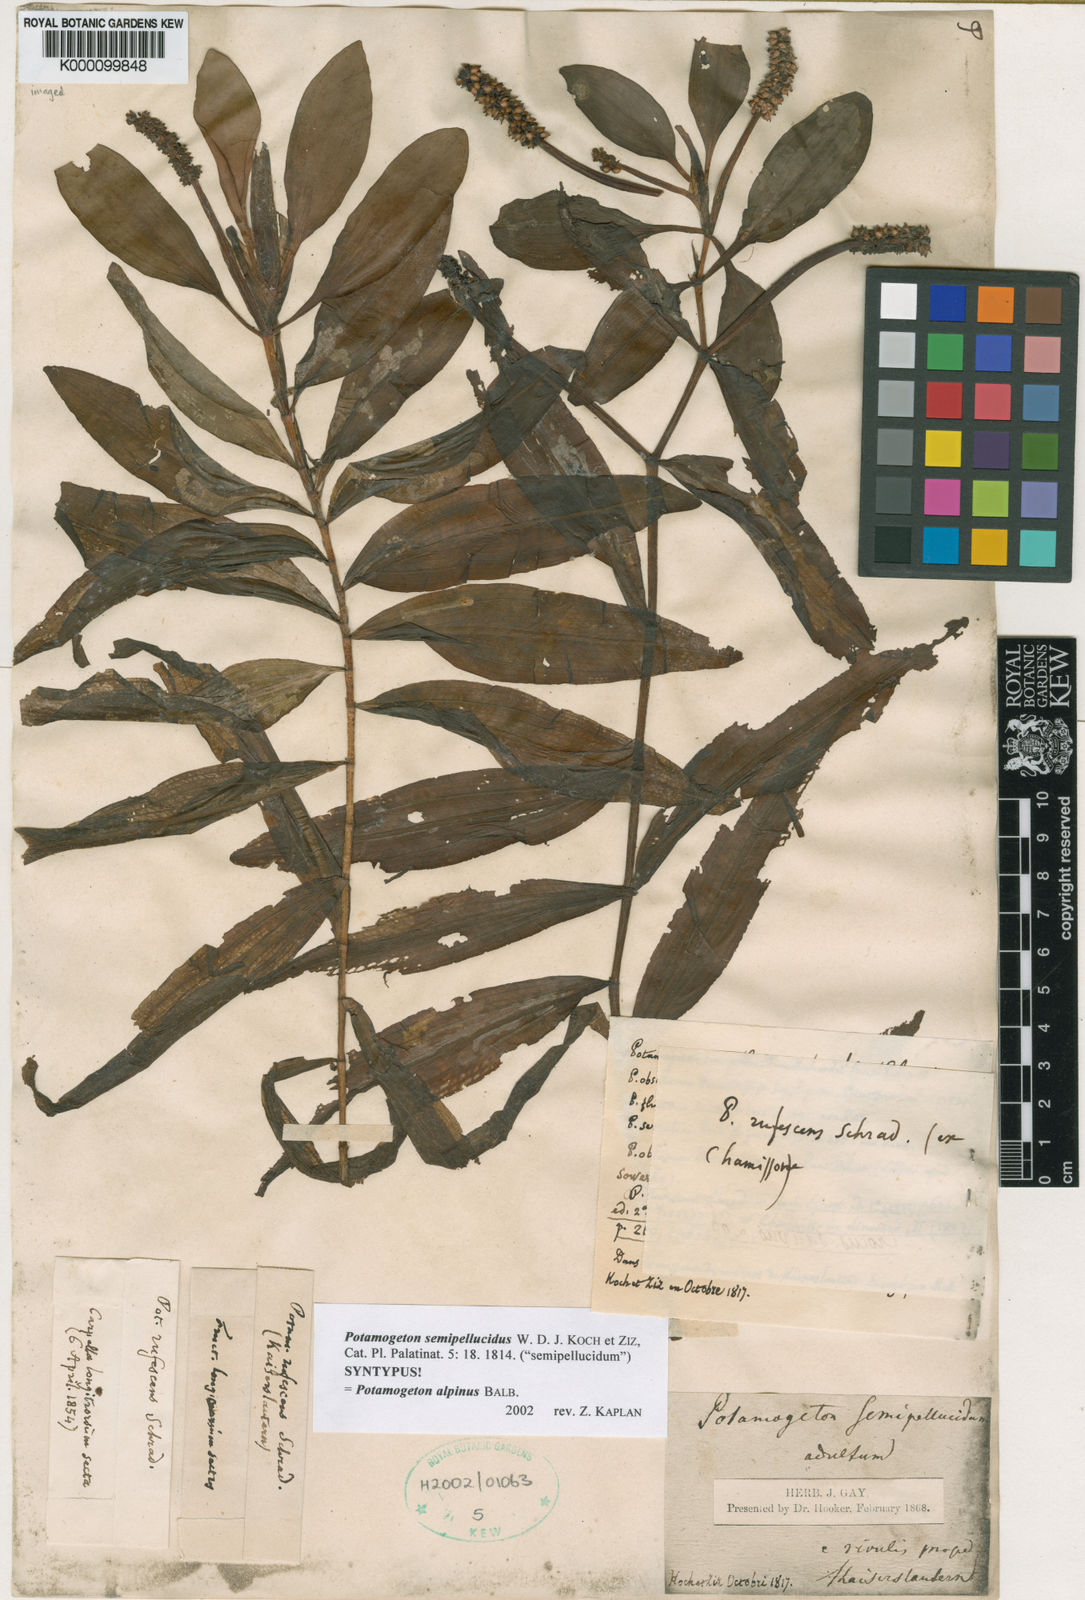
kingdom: Plantae
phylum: Tracheophyta
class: Liliopsida
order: Alismatales
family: Potamogetonaceae
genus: Potamogeton
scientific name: Potamogeton alpinus
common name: Red pondweed
